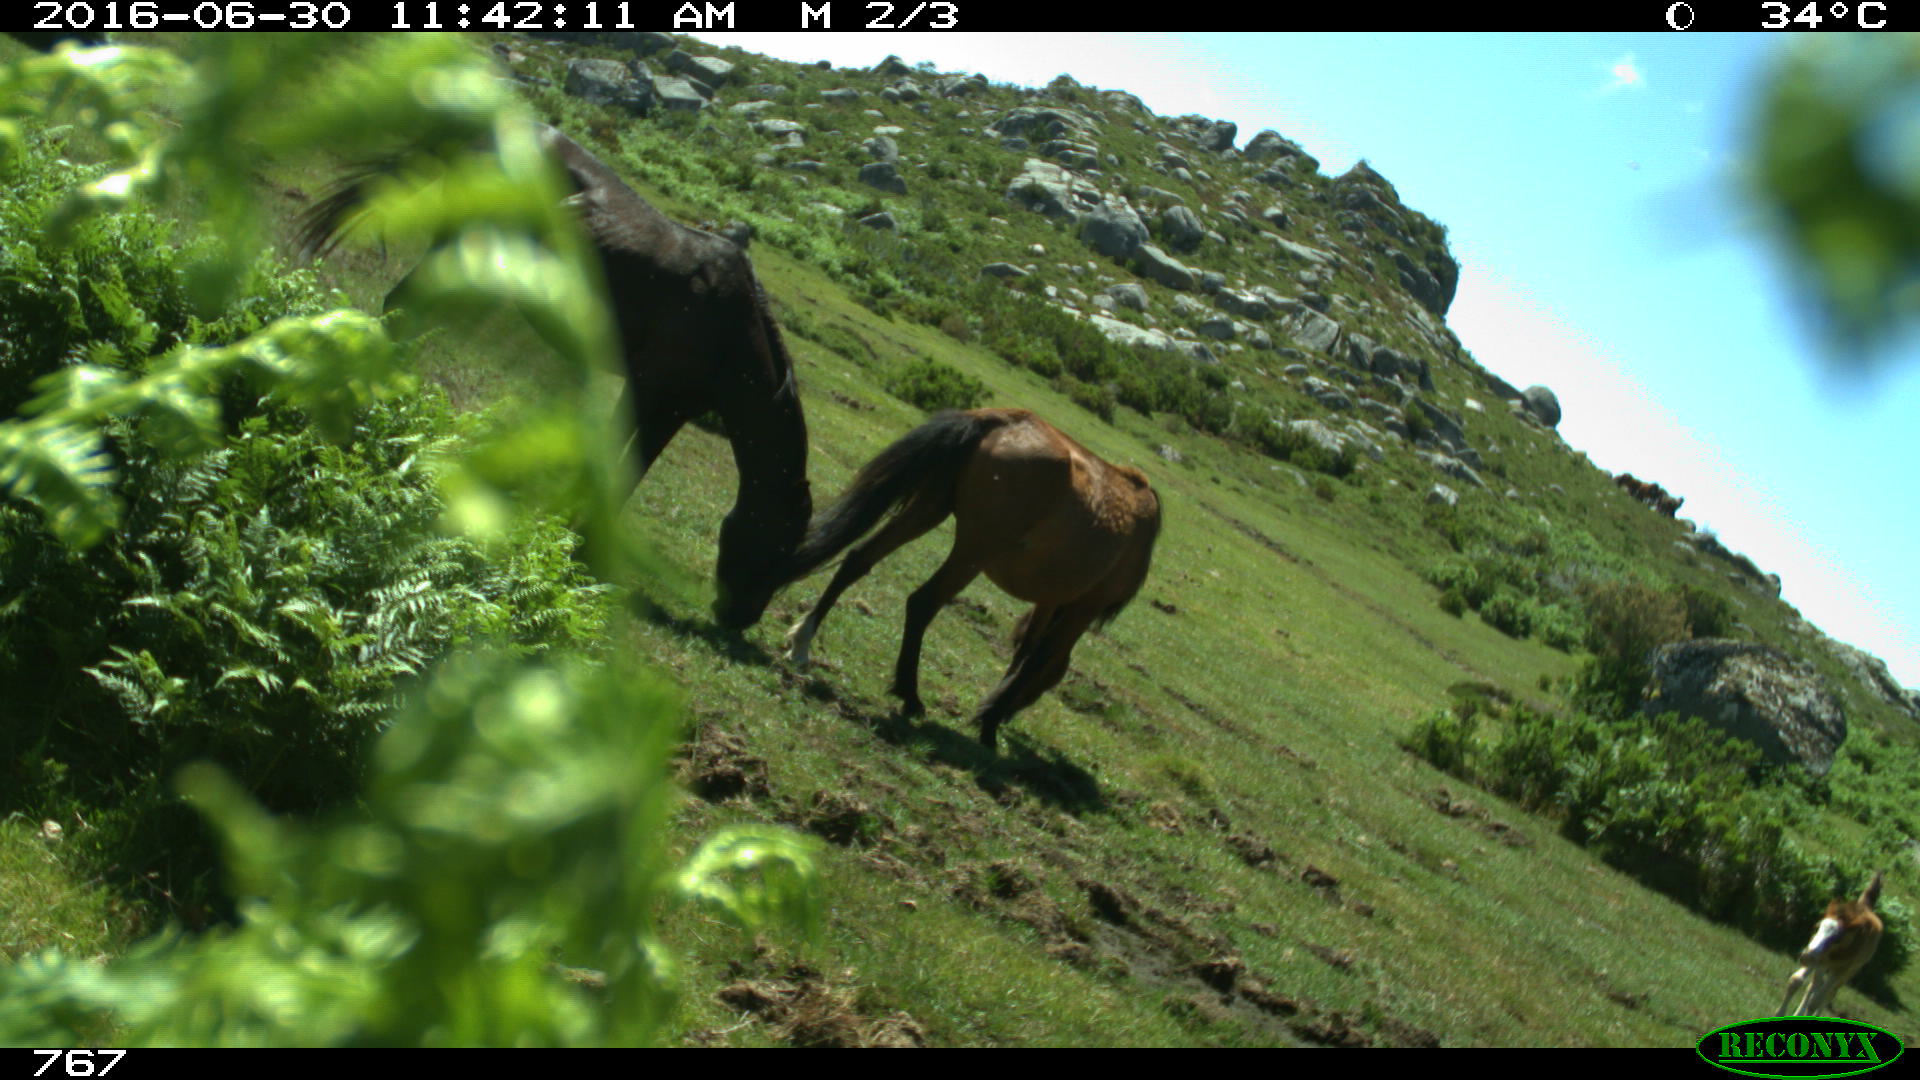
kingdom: Animalia
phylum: Chordata
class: Mammalia
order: Perissodactyla
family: Equidae
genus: Equus
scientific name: Equus caballus
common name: Horse
